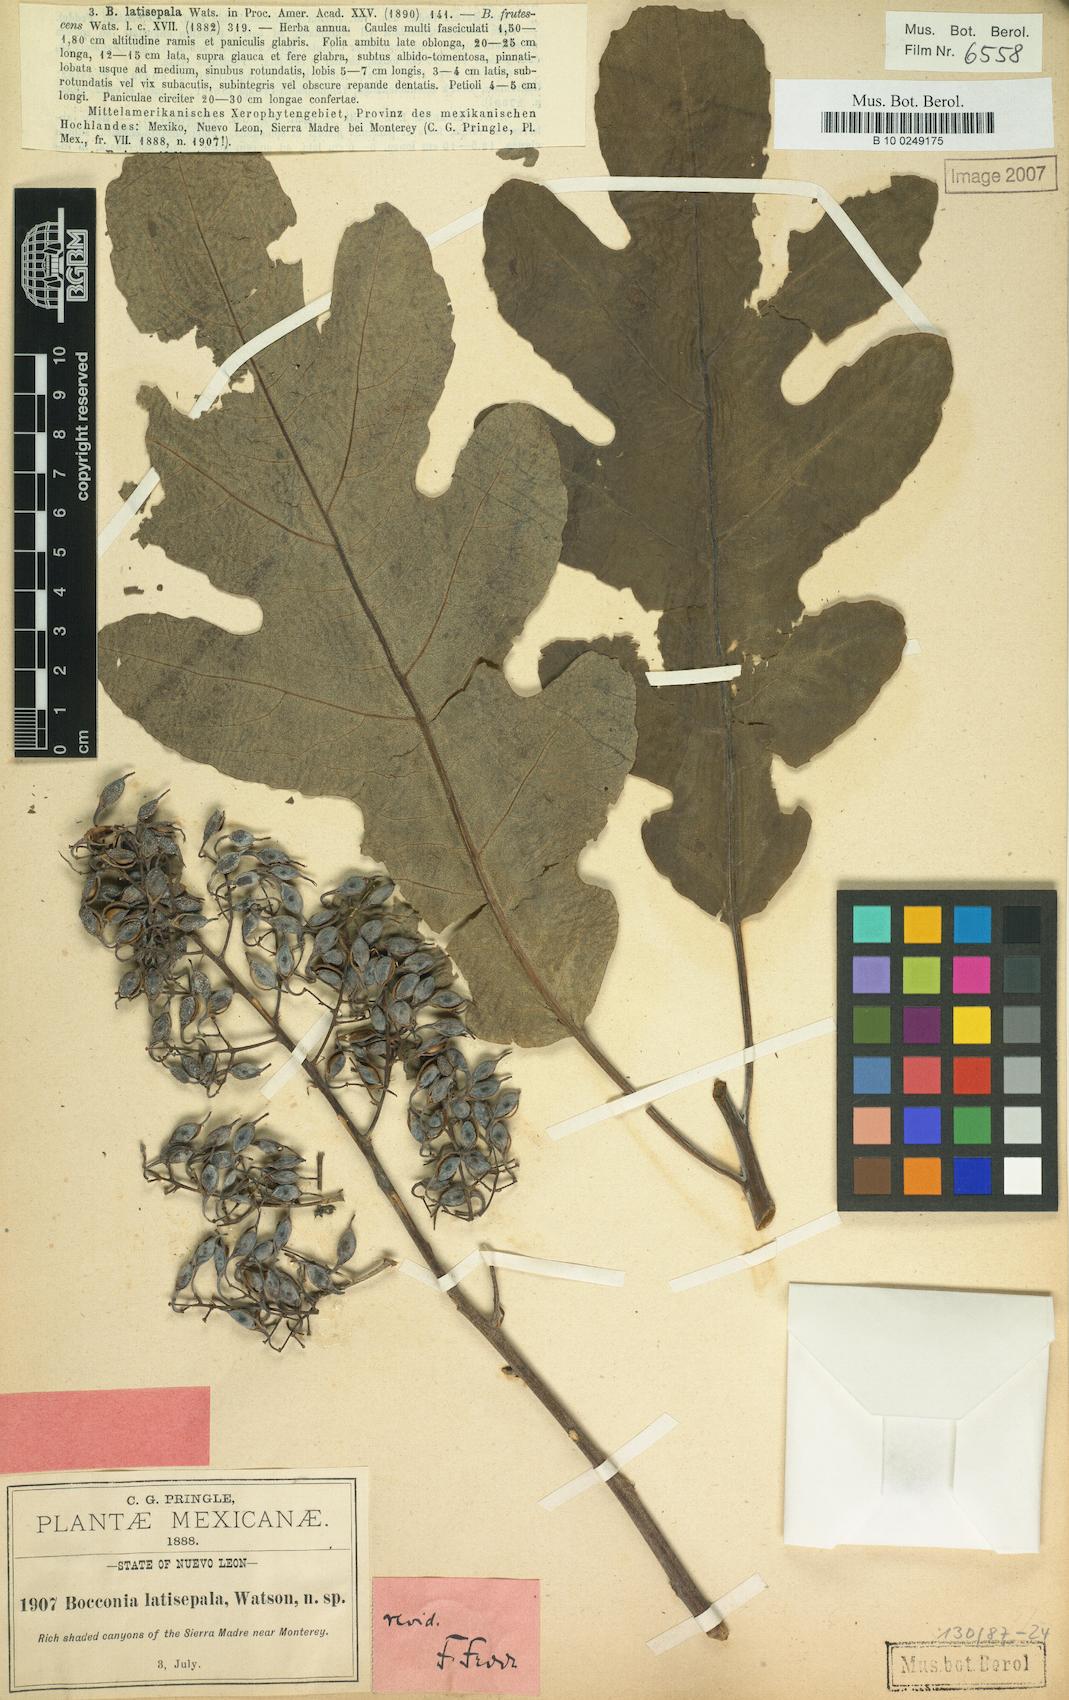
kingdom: Plantae
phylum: Tracheophyta
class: Magnoliopsida
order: Ranunculales
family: Papaveraceae
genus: Bocconia
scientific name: Bocconia frutescens
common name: Tree poppy
